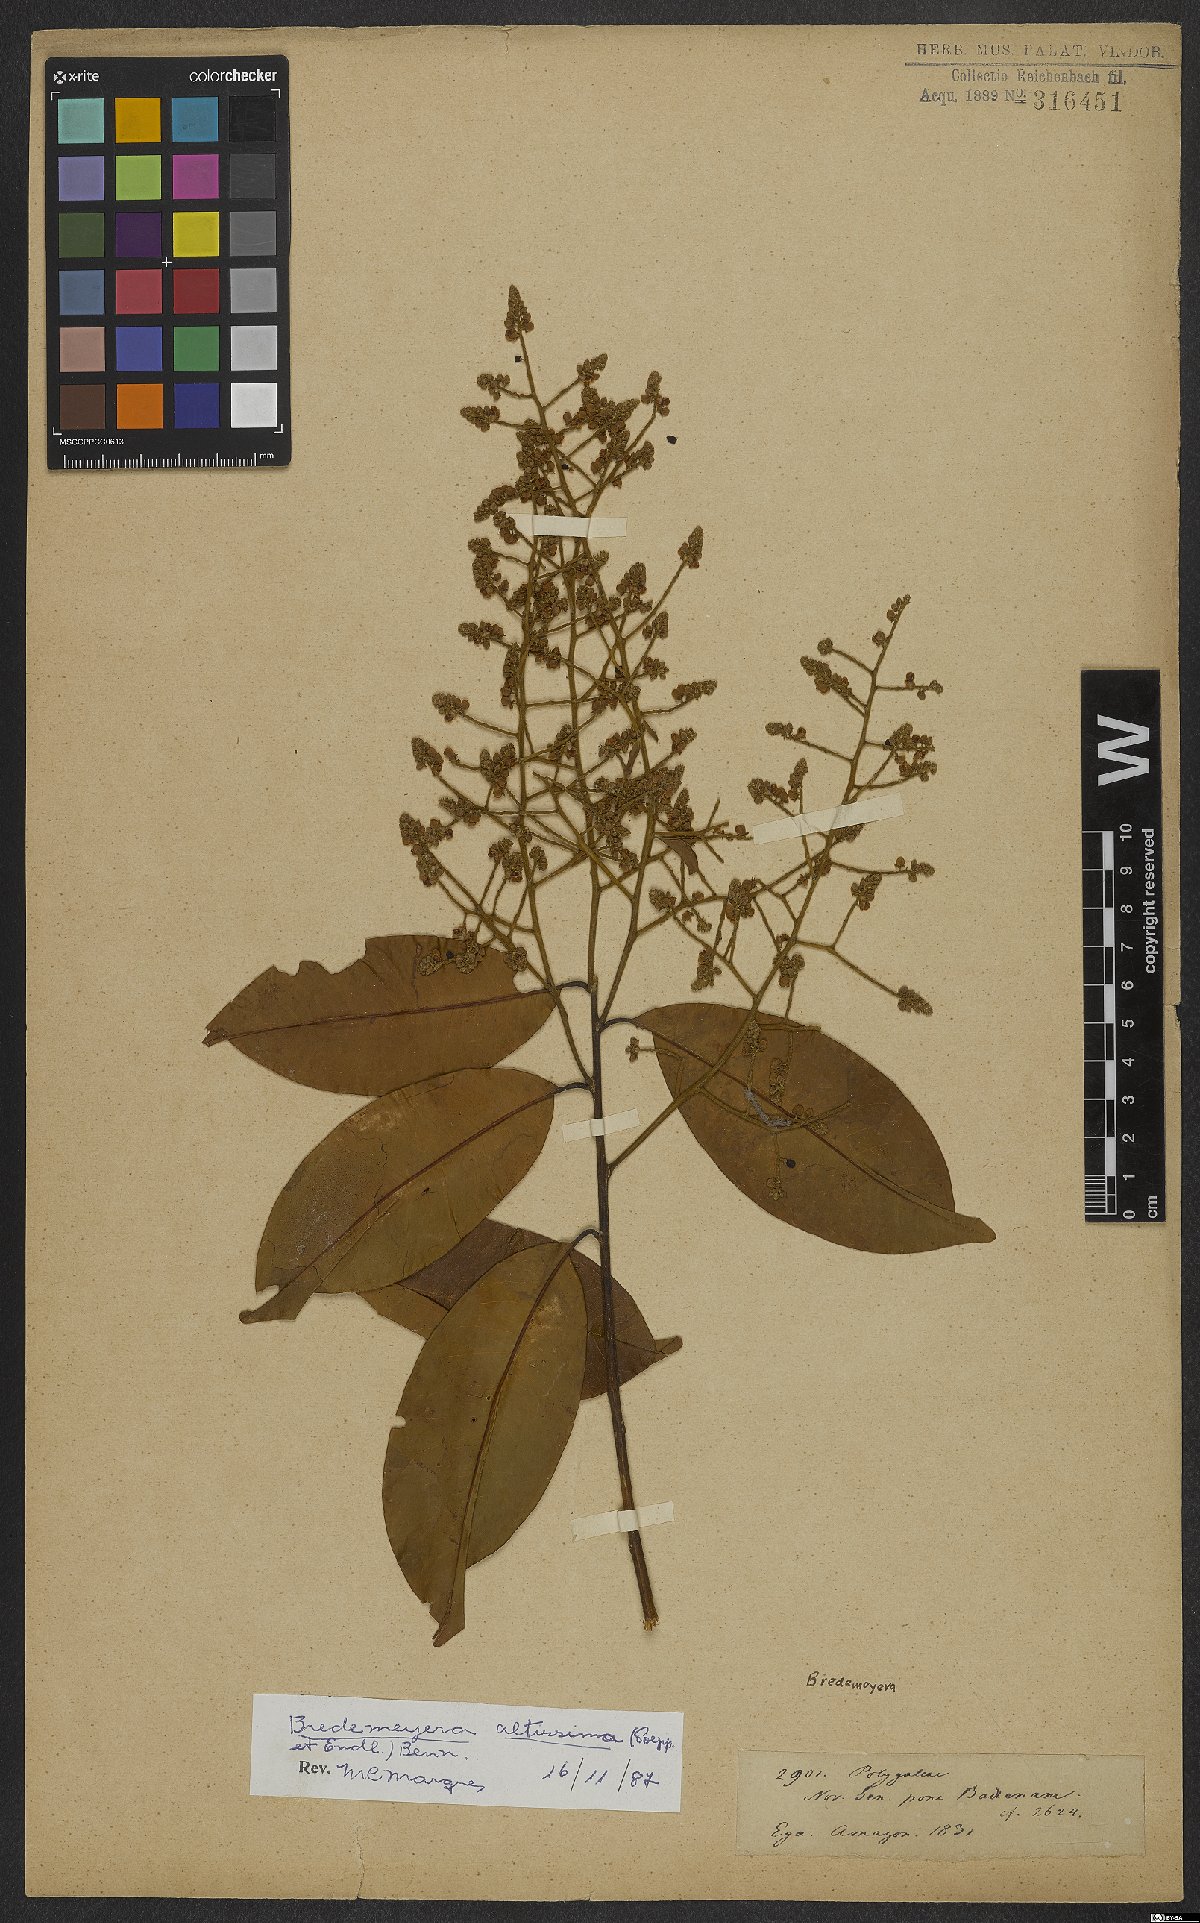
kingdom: Plantae
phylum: Tracheophyta
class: Magnoliopsida
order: Fabales
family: Polygalaceae
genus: Bredemeyera
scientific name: Bredemeyera
